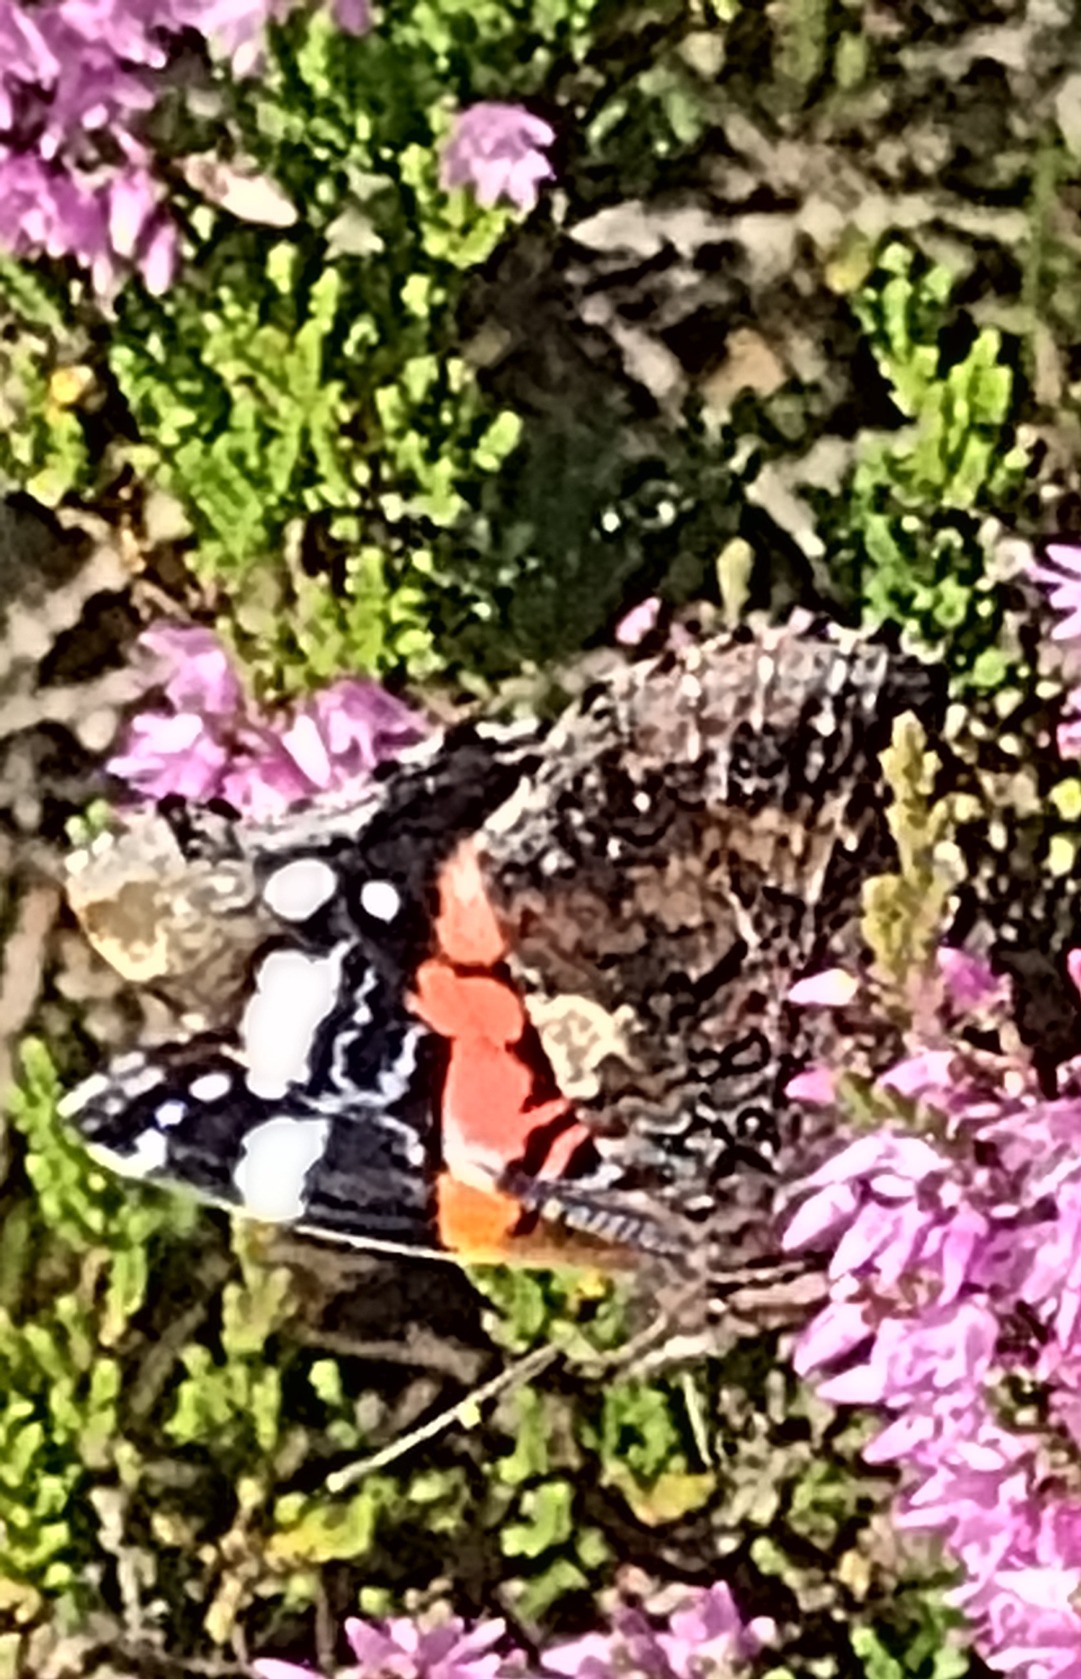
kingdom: Animalia
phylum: Arthropoda
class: Insecta
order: Lepidoptera
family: Nymphalidae
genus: Vanessa
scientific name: Vanessa atalanta
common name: Admiral
